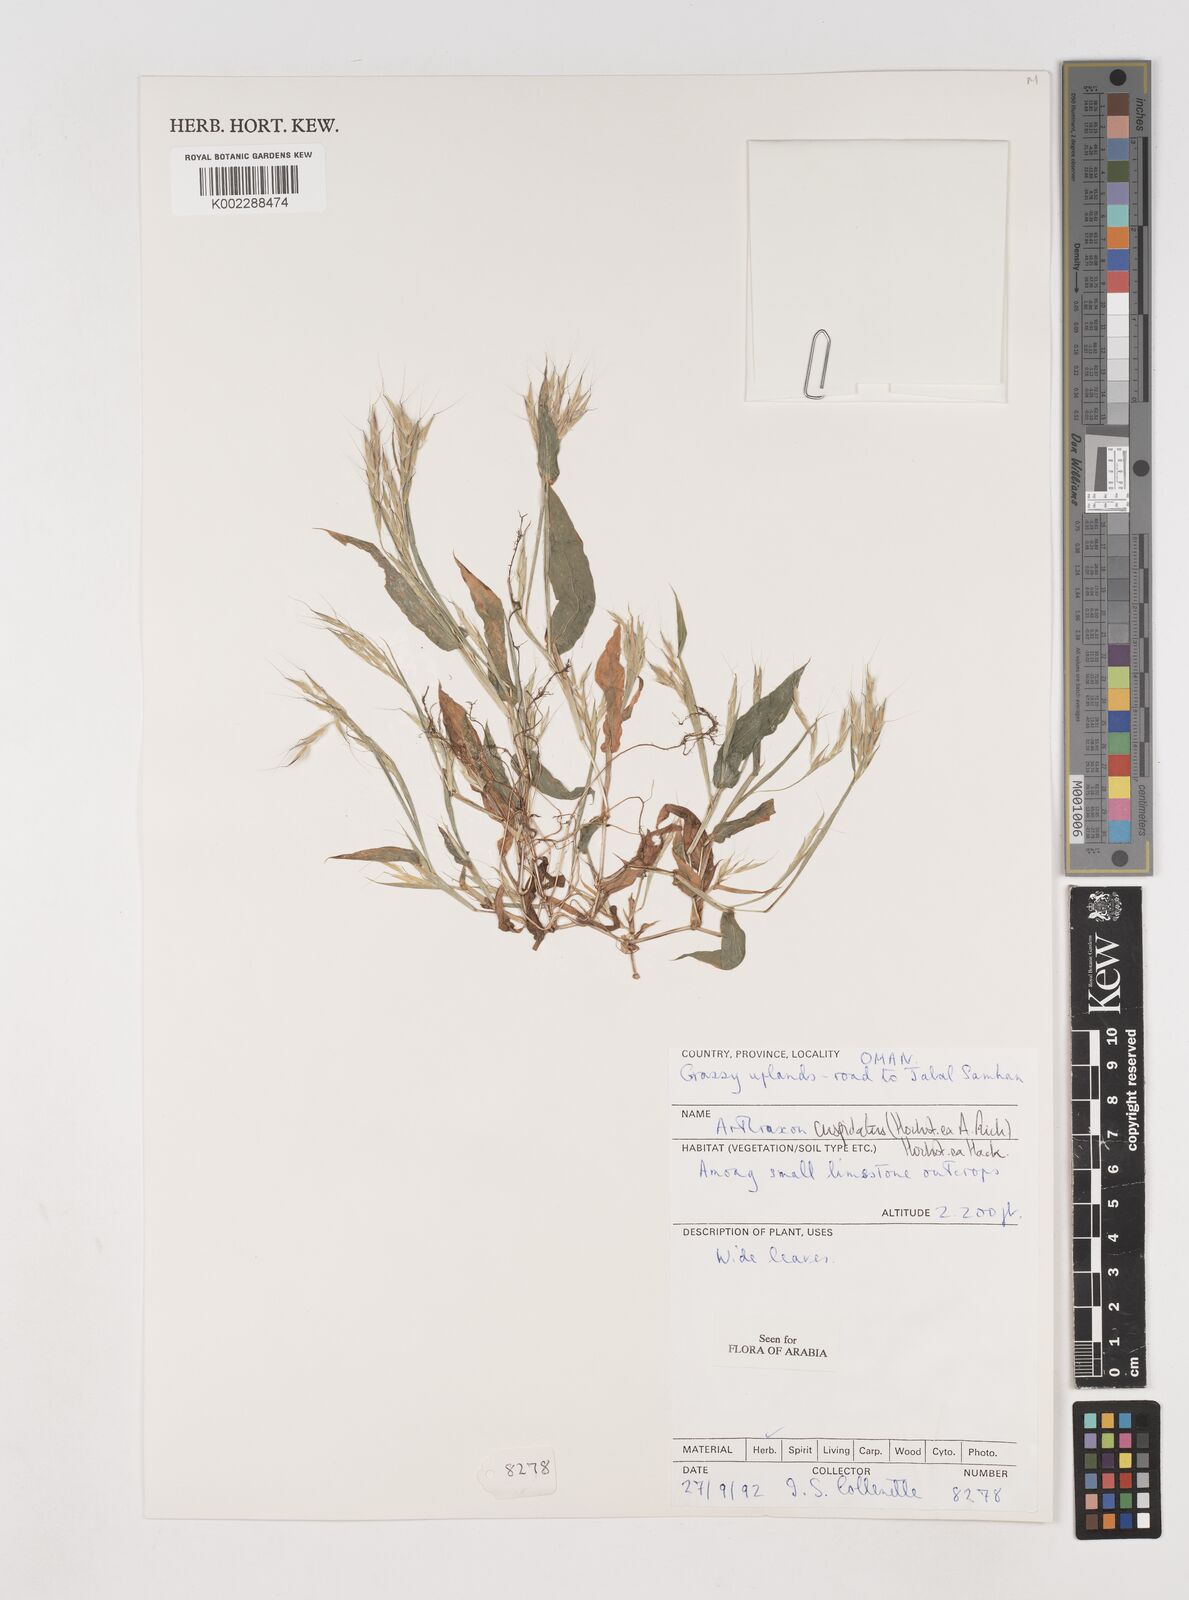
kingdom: Plantae
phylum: Tracheophyta
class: Liliopsida
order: Poales
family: Poaceae
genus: Arthraxon
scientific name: Arthraxon cuspidatus
